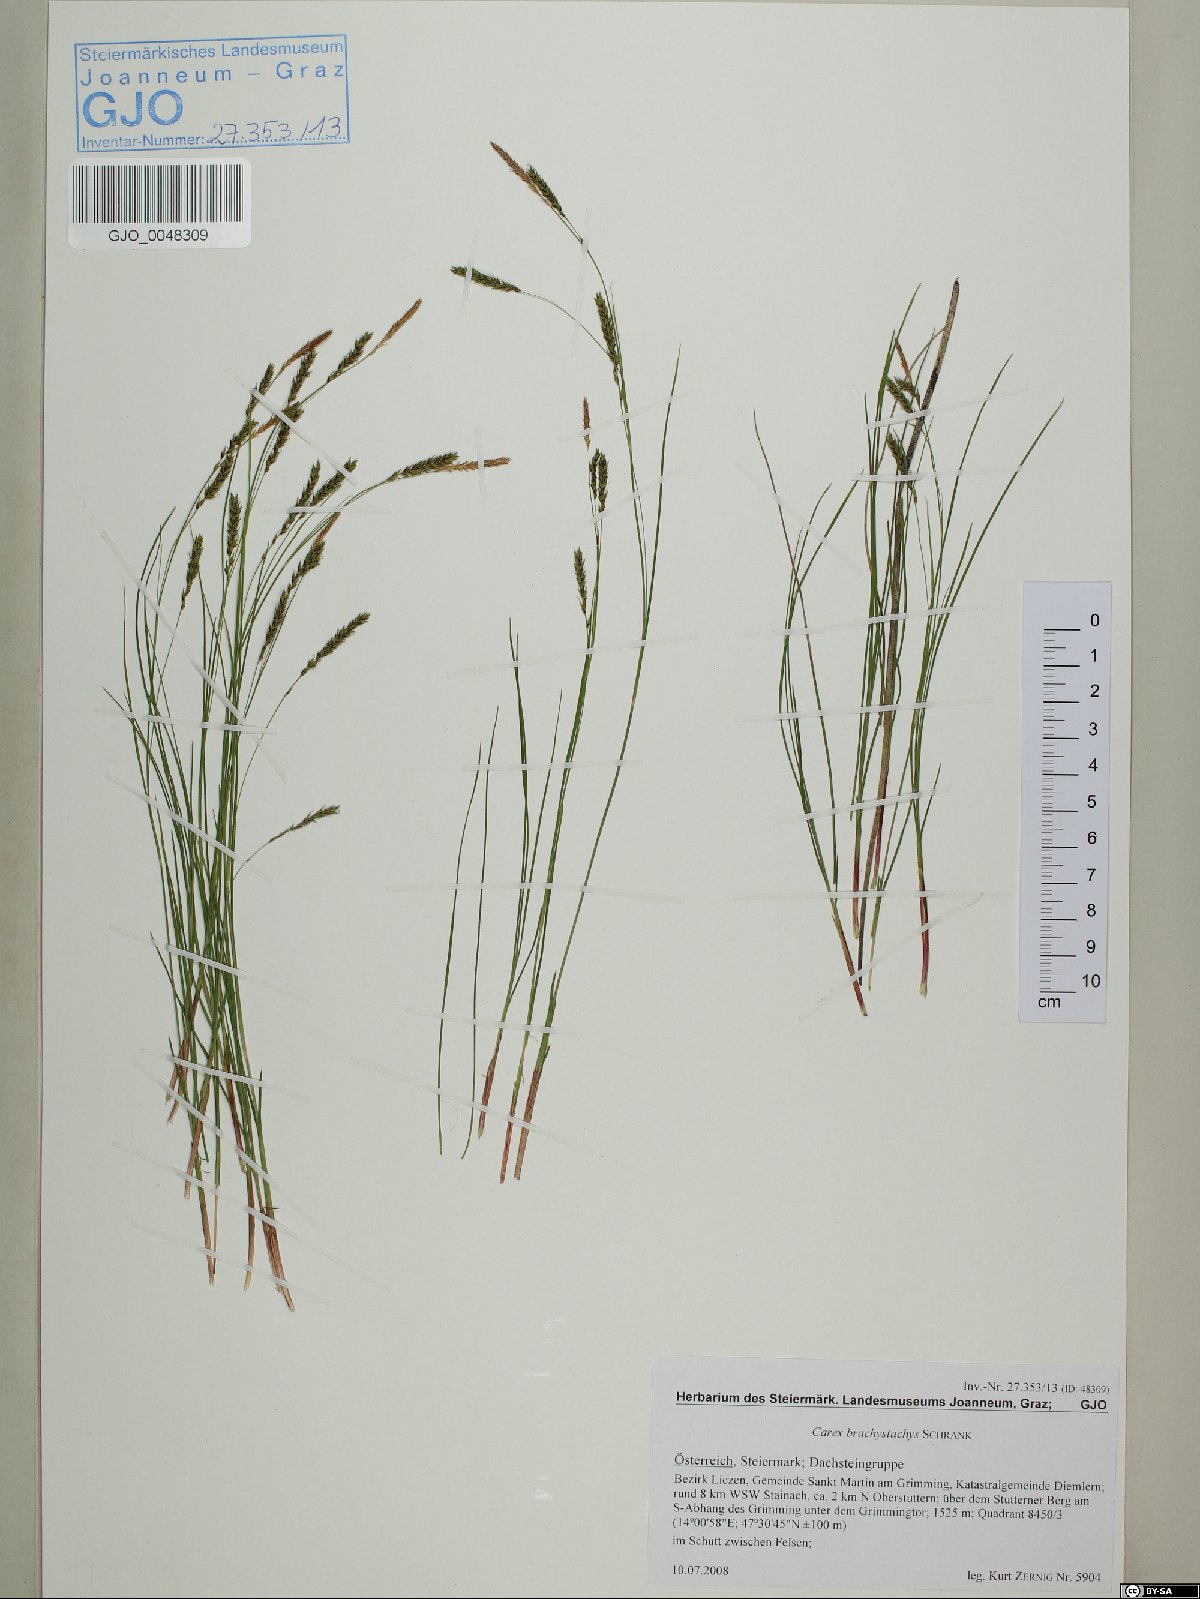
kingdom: Plantae
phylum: Tracheophyta
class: Liliopsida
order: Poales
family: Cyperaceae
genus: Carex
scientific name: Carex brachystachys
